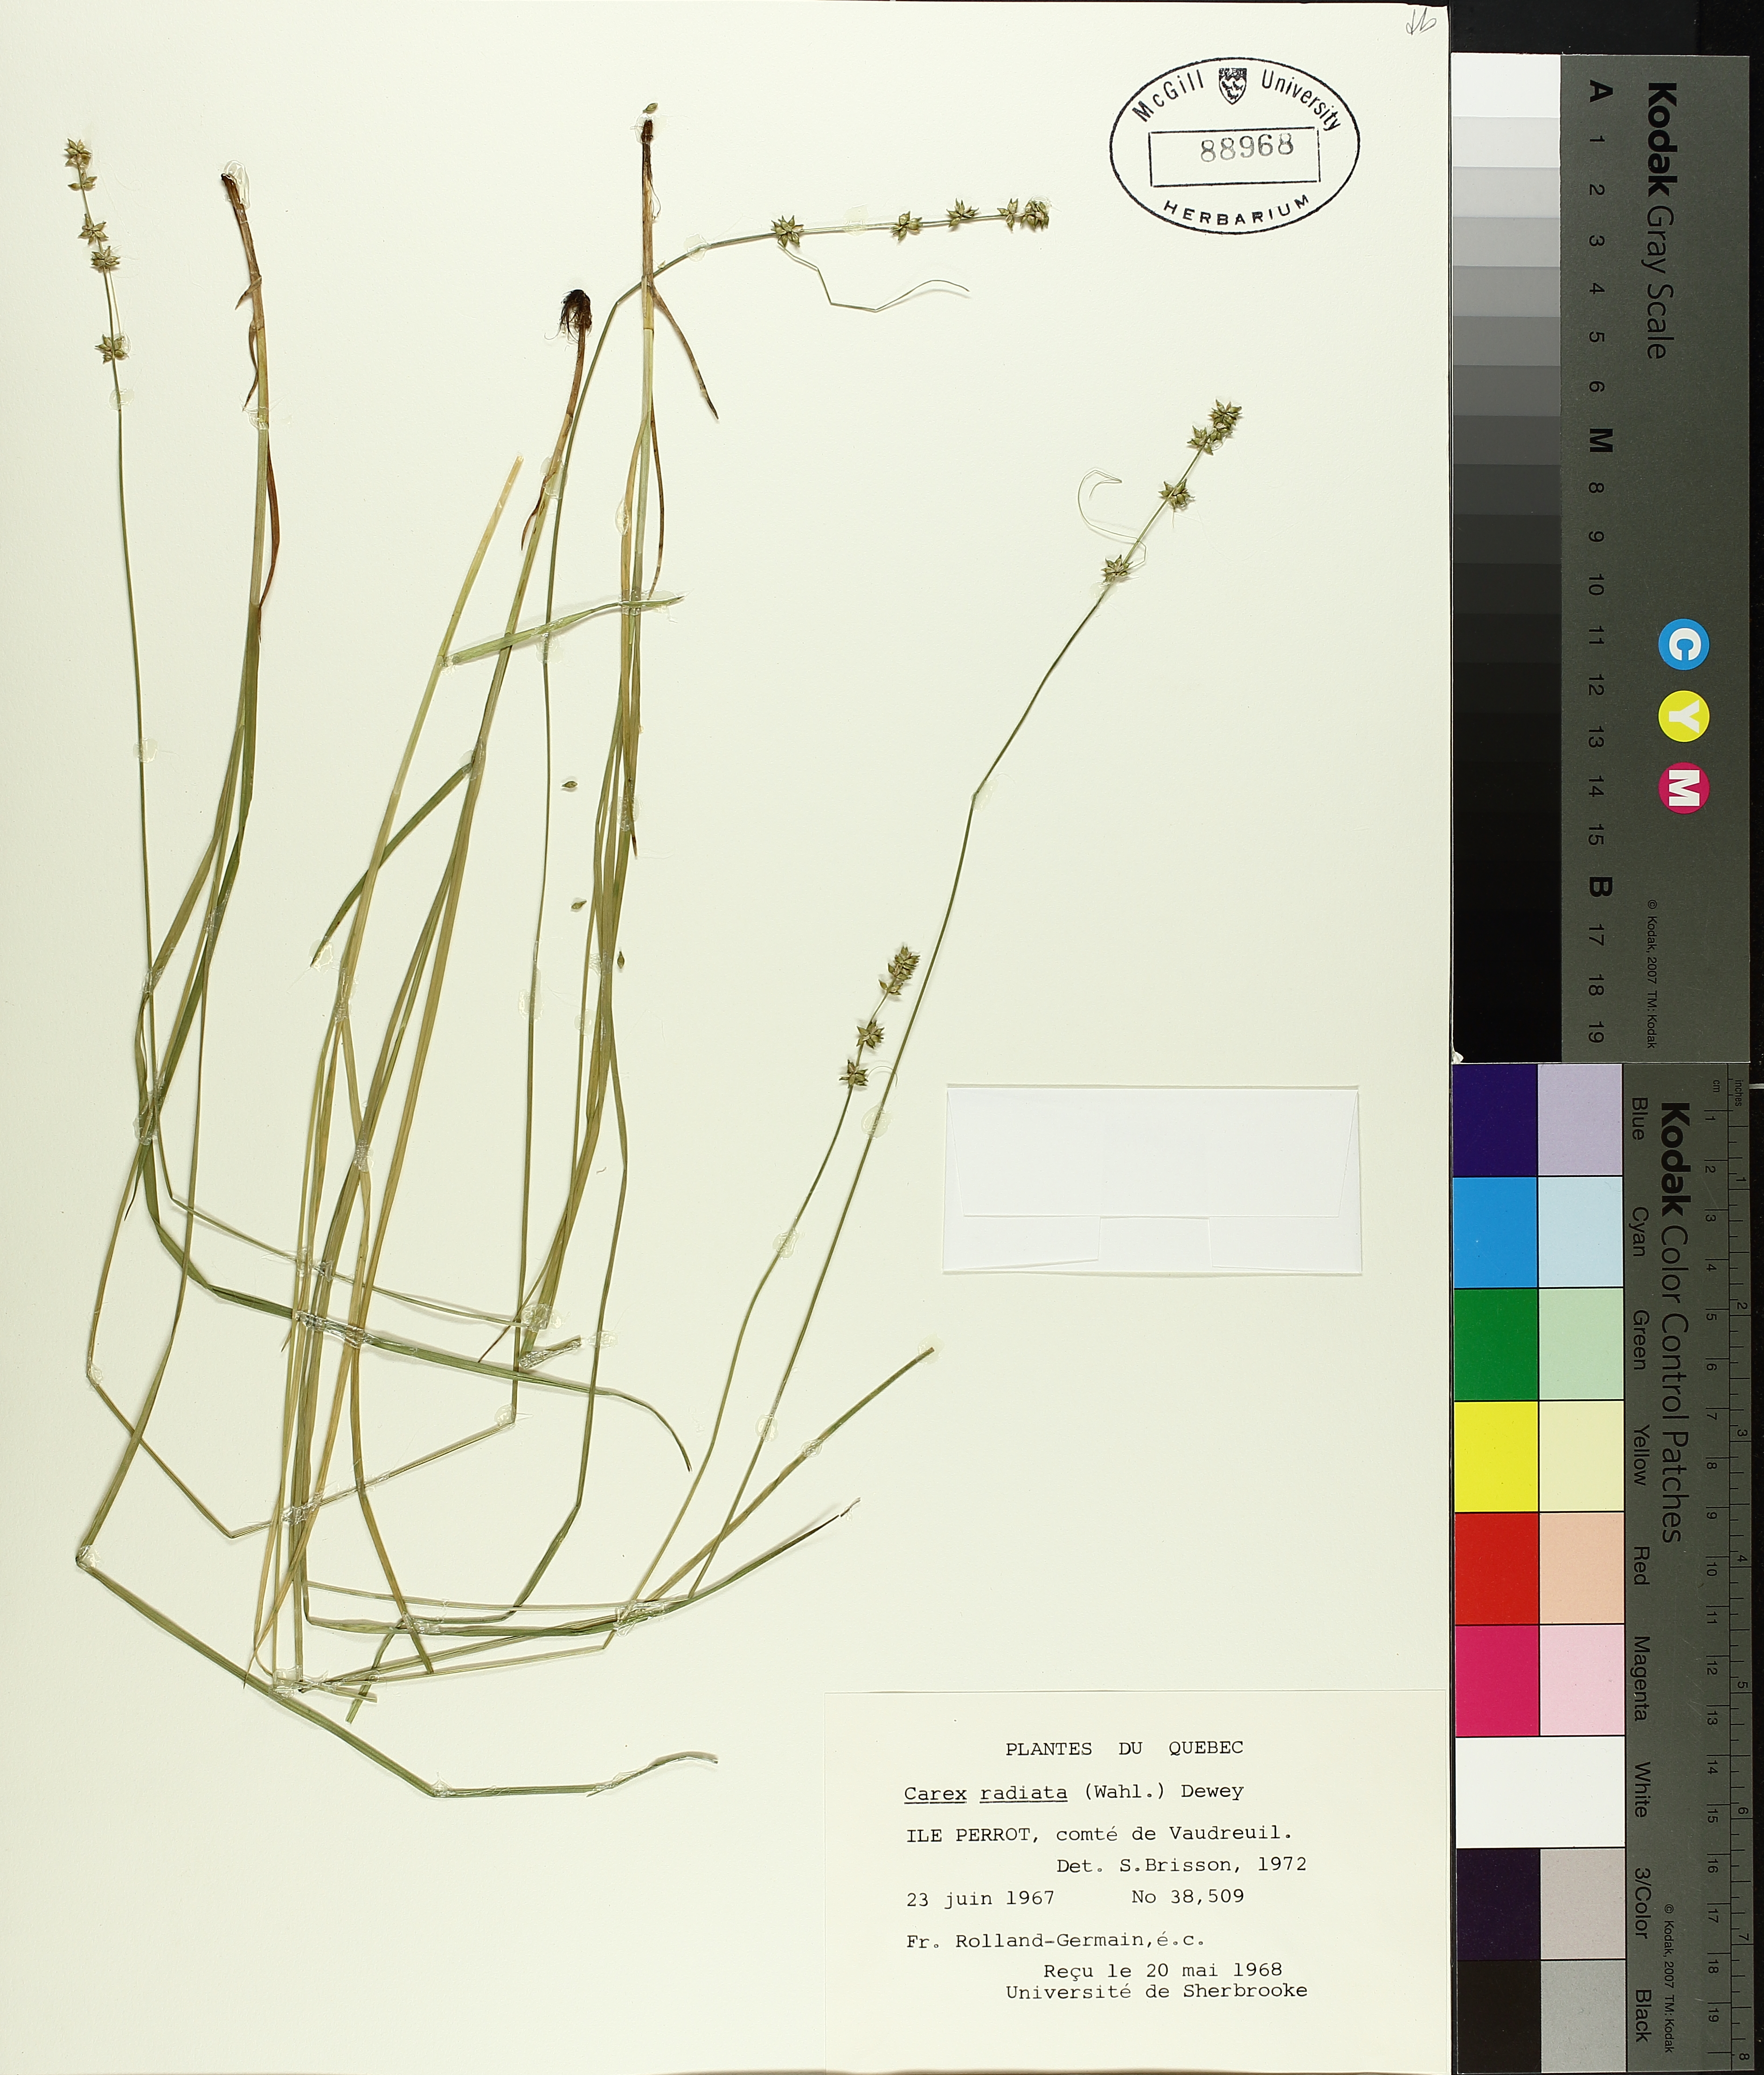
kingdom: Plantae
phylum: Tracheophyta
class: Liliopsida
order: Poales
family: Cyperaceae
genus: Carex
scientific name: Carex radiata
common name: Eastern star sedge
